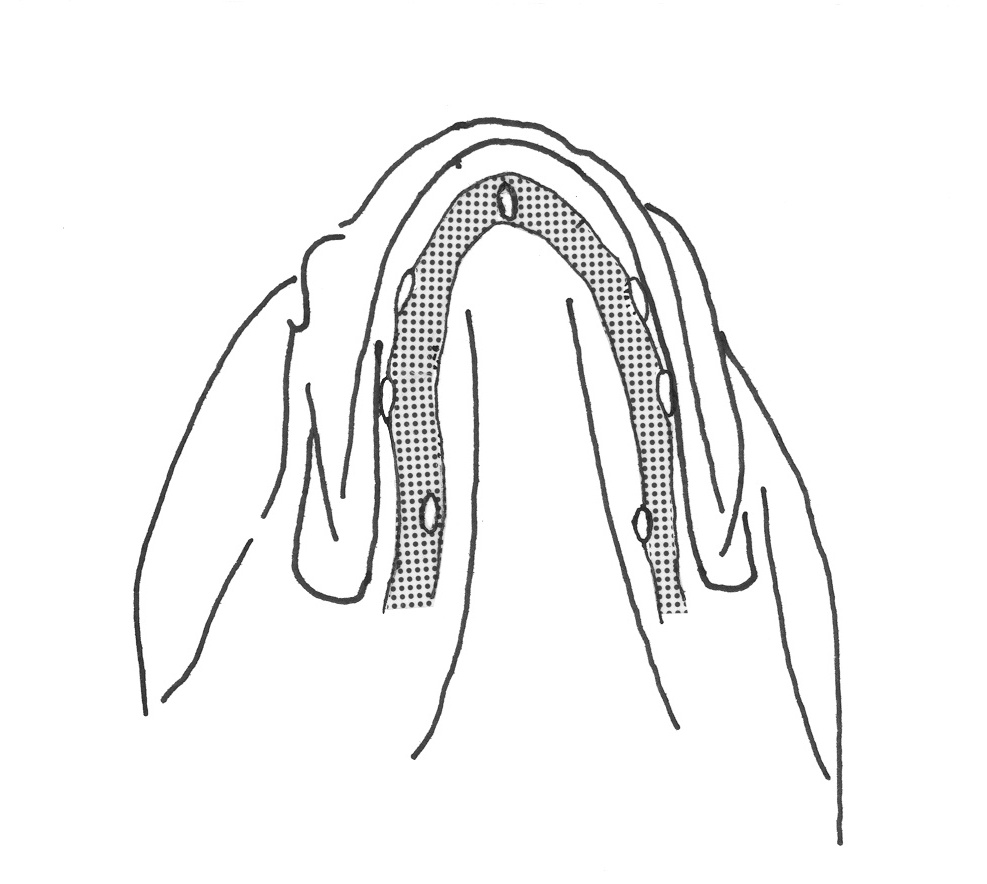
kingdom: Animalia
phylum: Chordata
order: Perciformes
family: Tripterygiidae
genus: Helcogramma
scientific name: Helcogramma maldivensis
